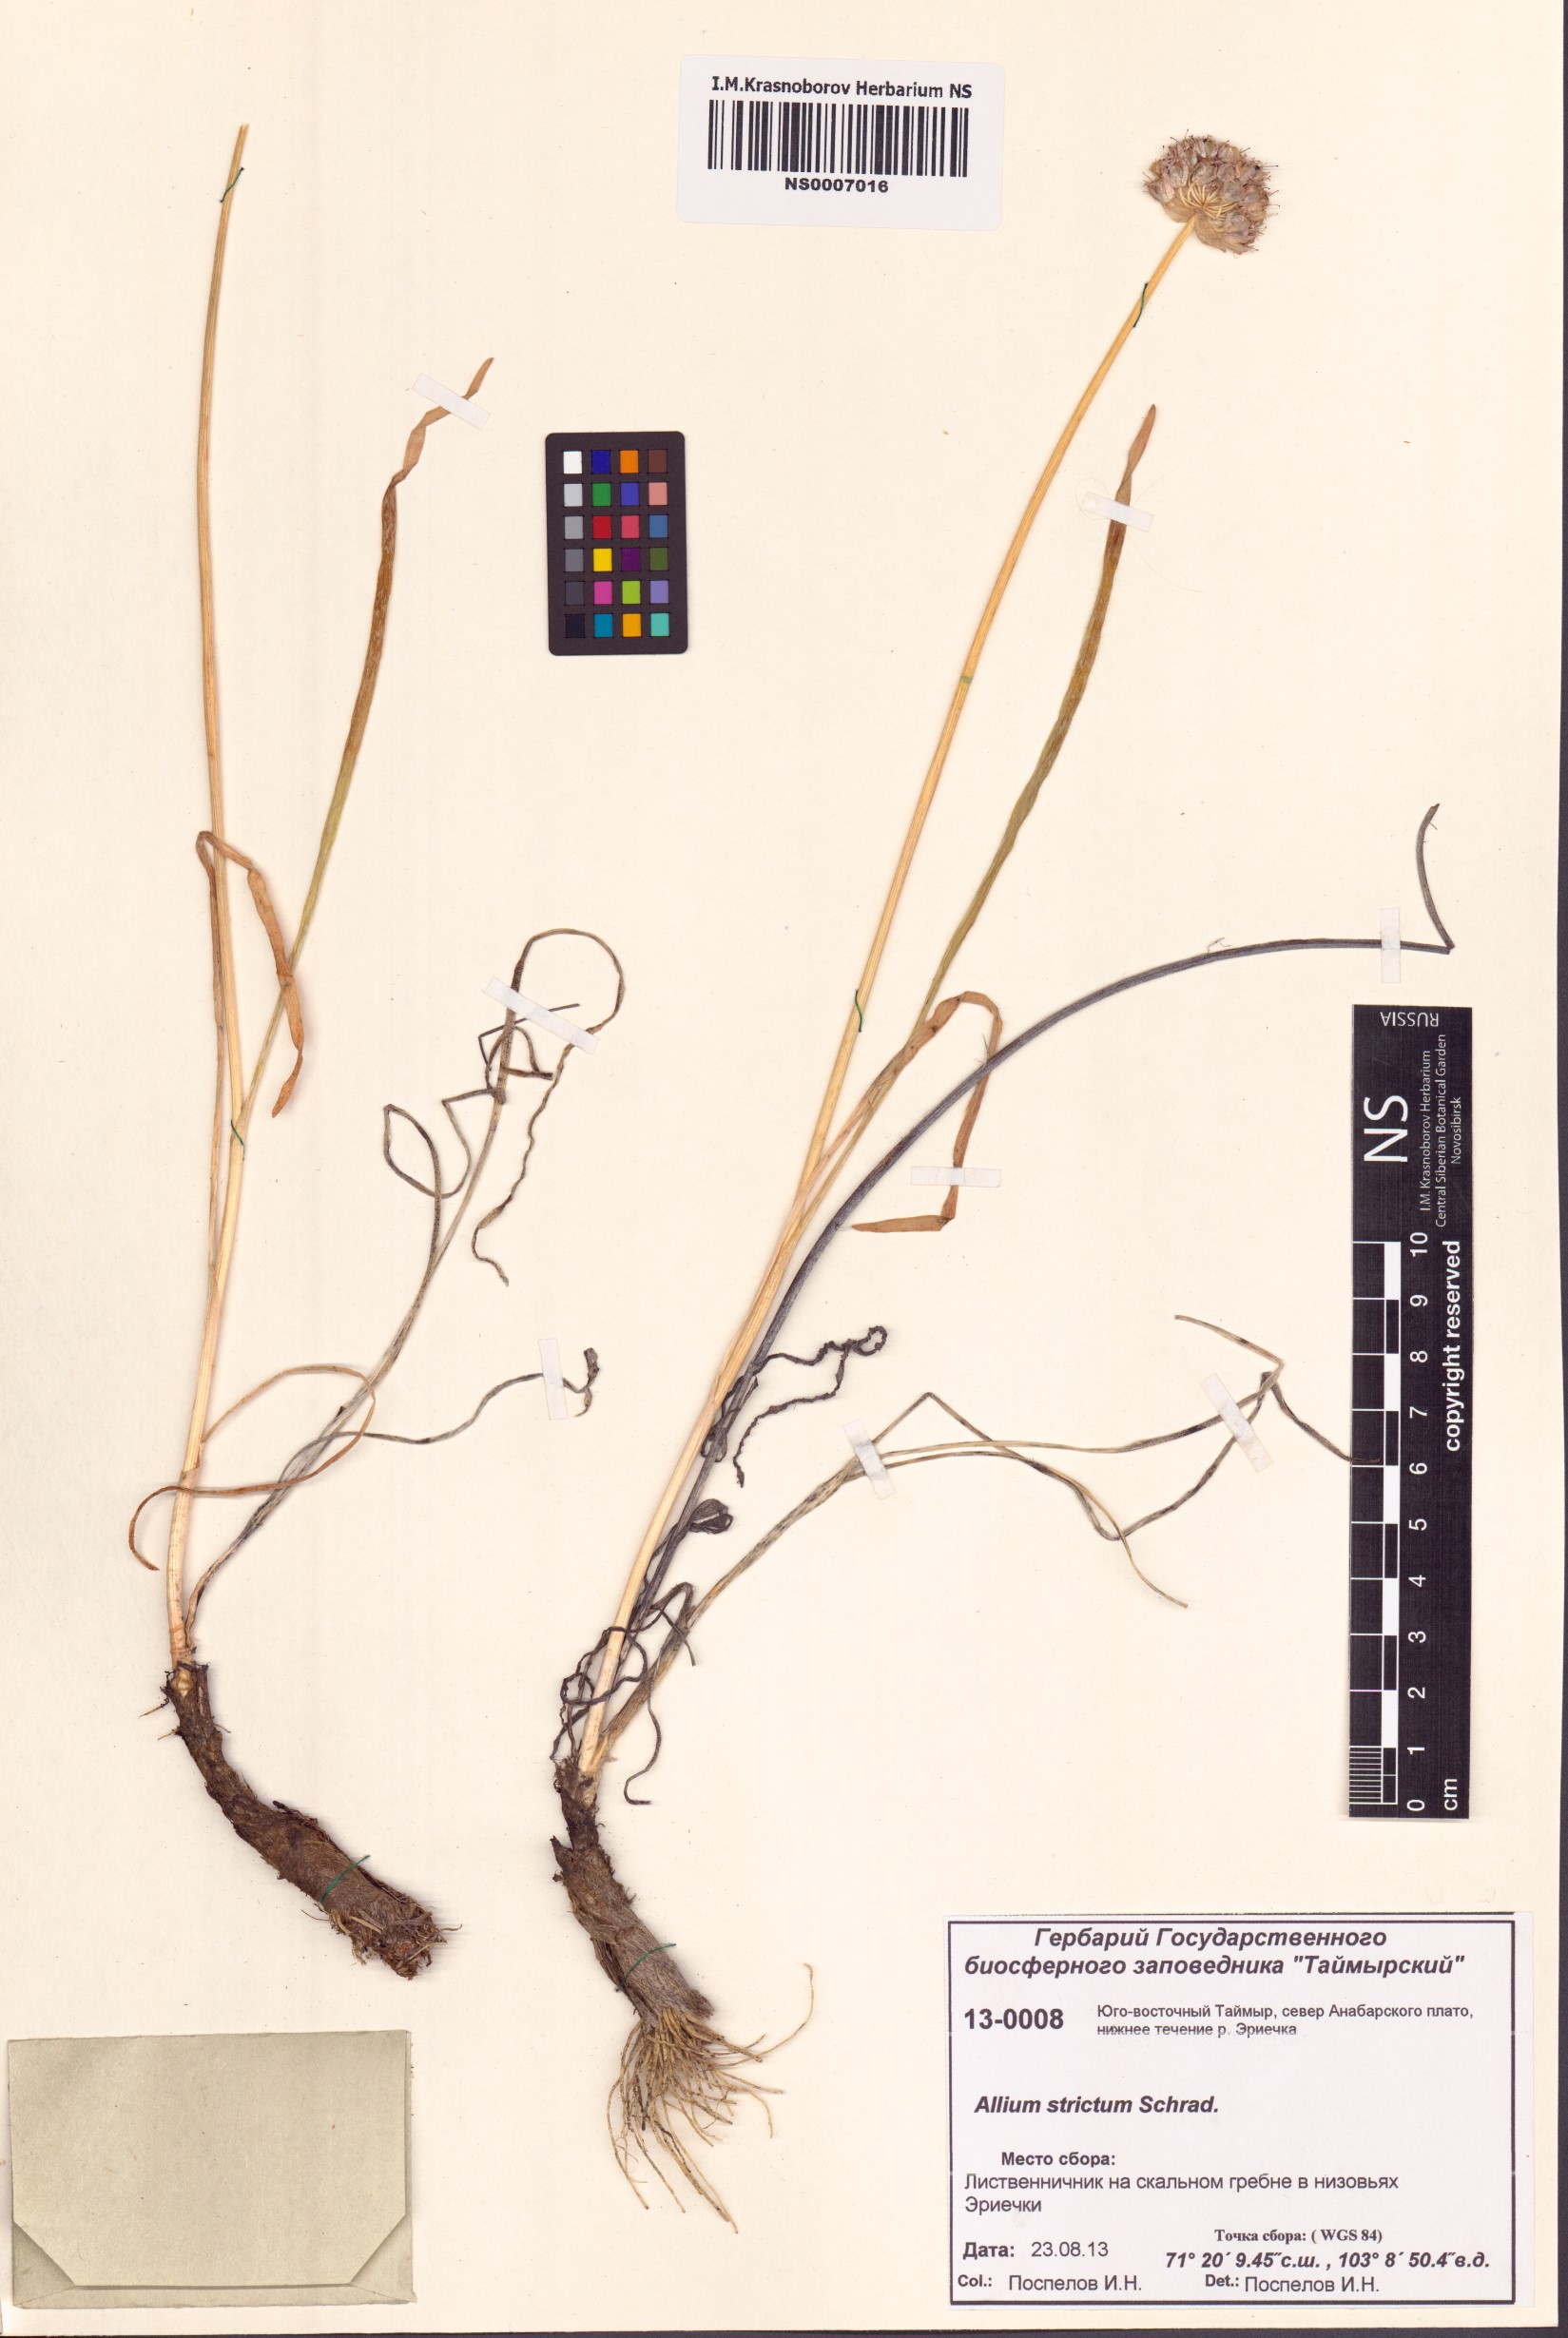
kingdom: Plantae
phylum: Tracheophyta
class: Liliopsida
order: Asparagales
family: Amaryllidaceae
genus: Allium
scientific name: Allium strictum
